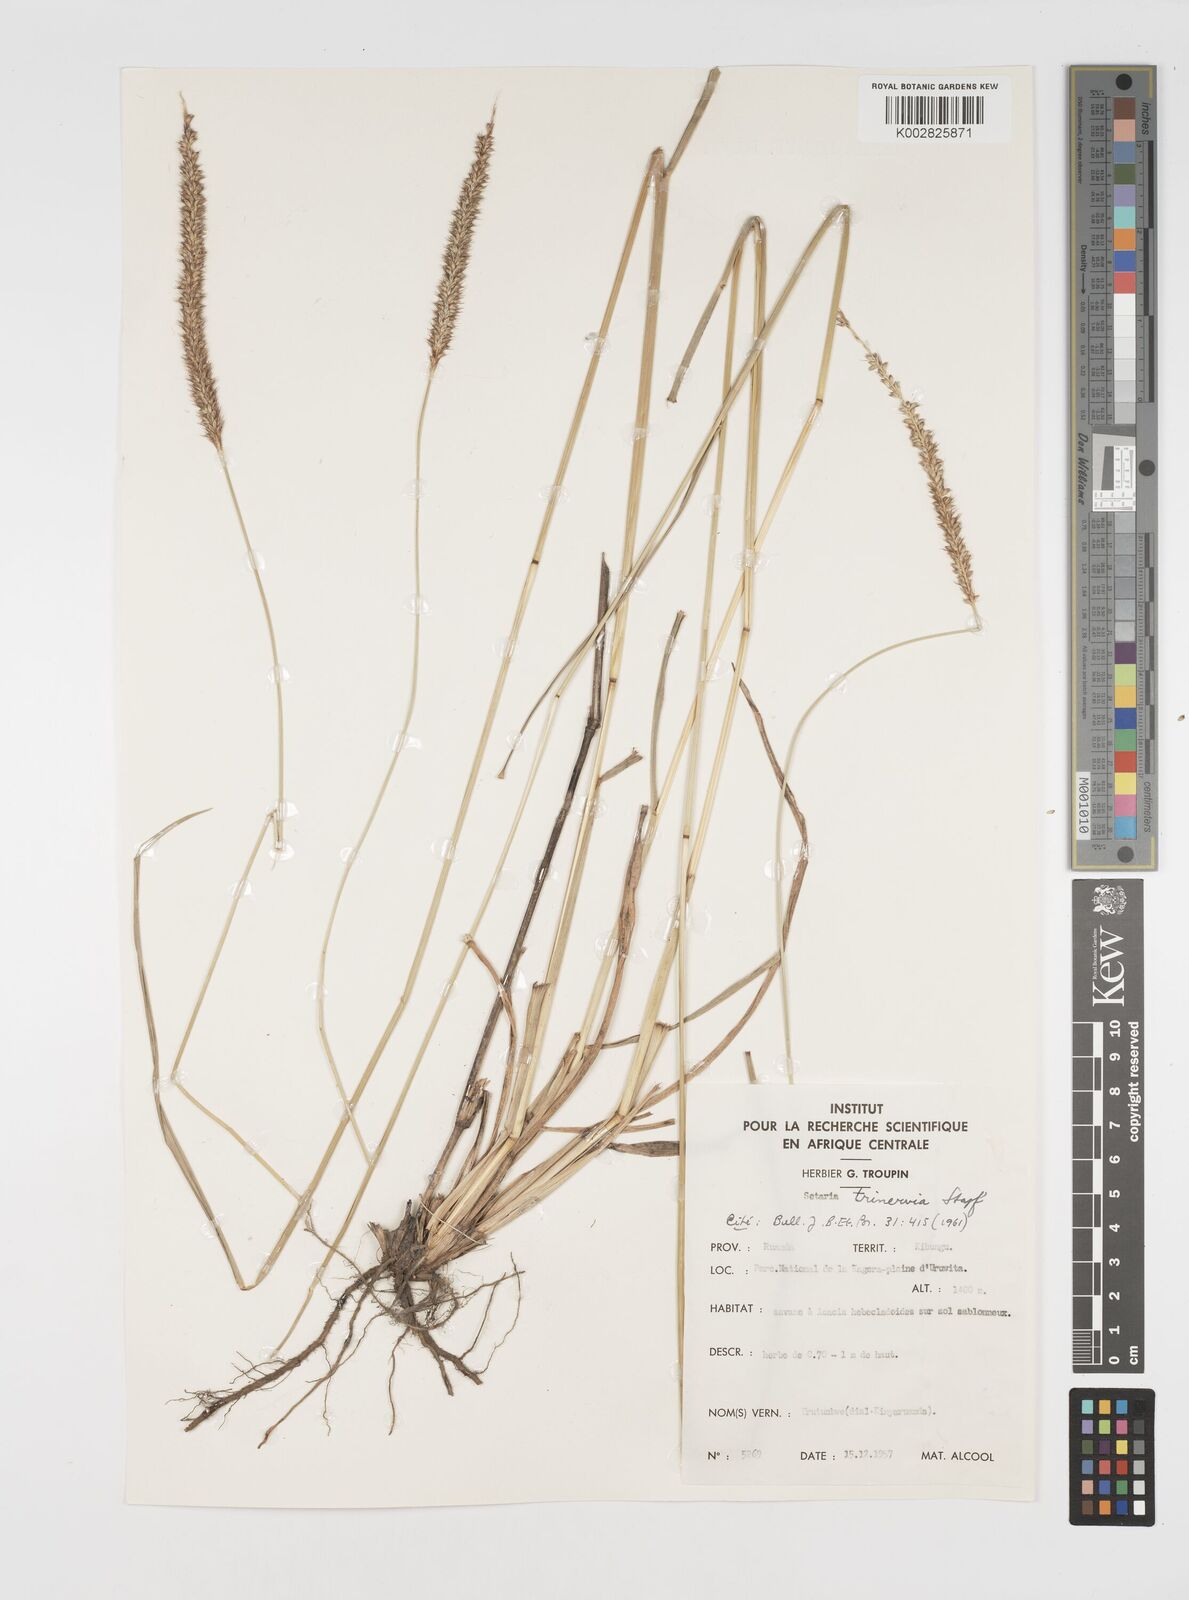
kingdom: Plantae
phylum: Tracheophyta
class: Liliopsida
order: Poales
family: Poaceae
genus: Setaria
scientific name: Setaria sphacelata
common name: African bristlegrass
